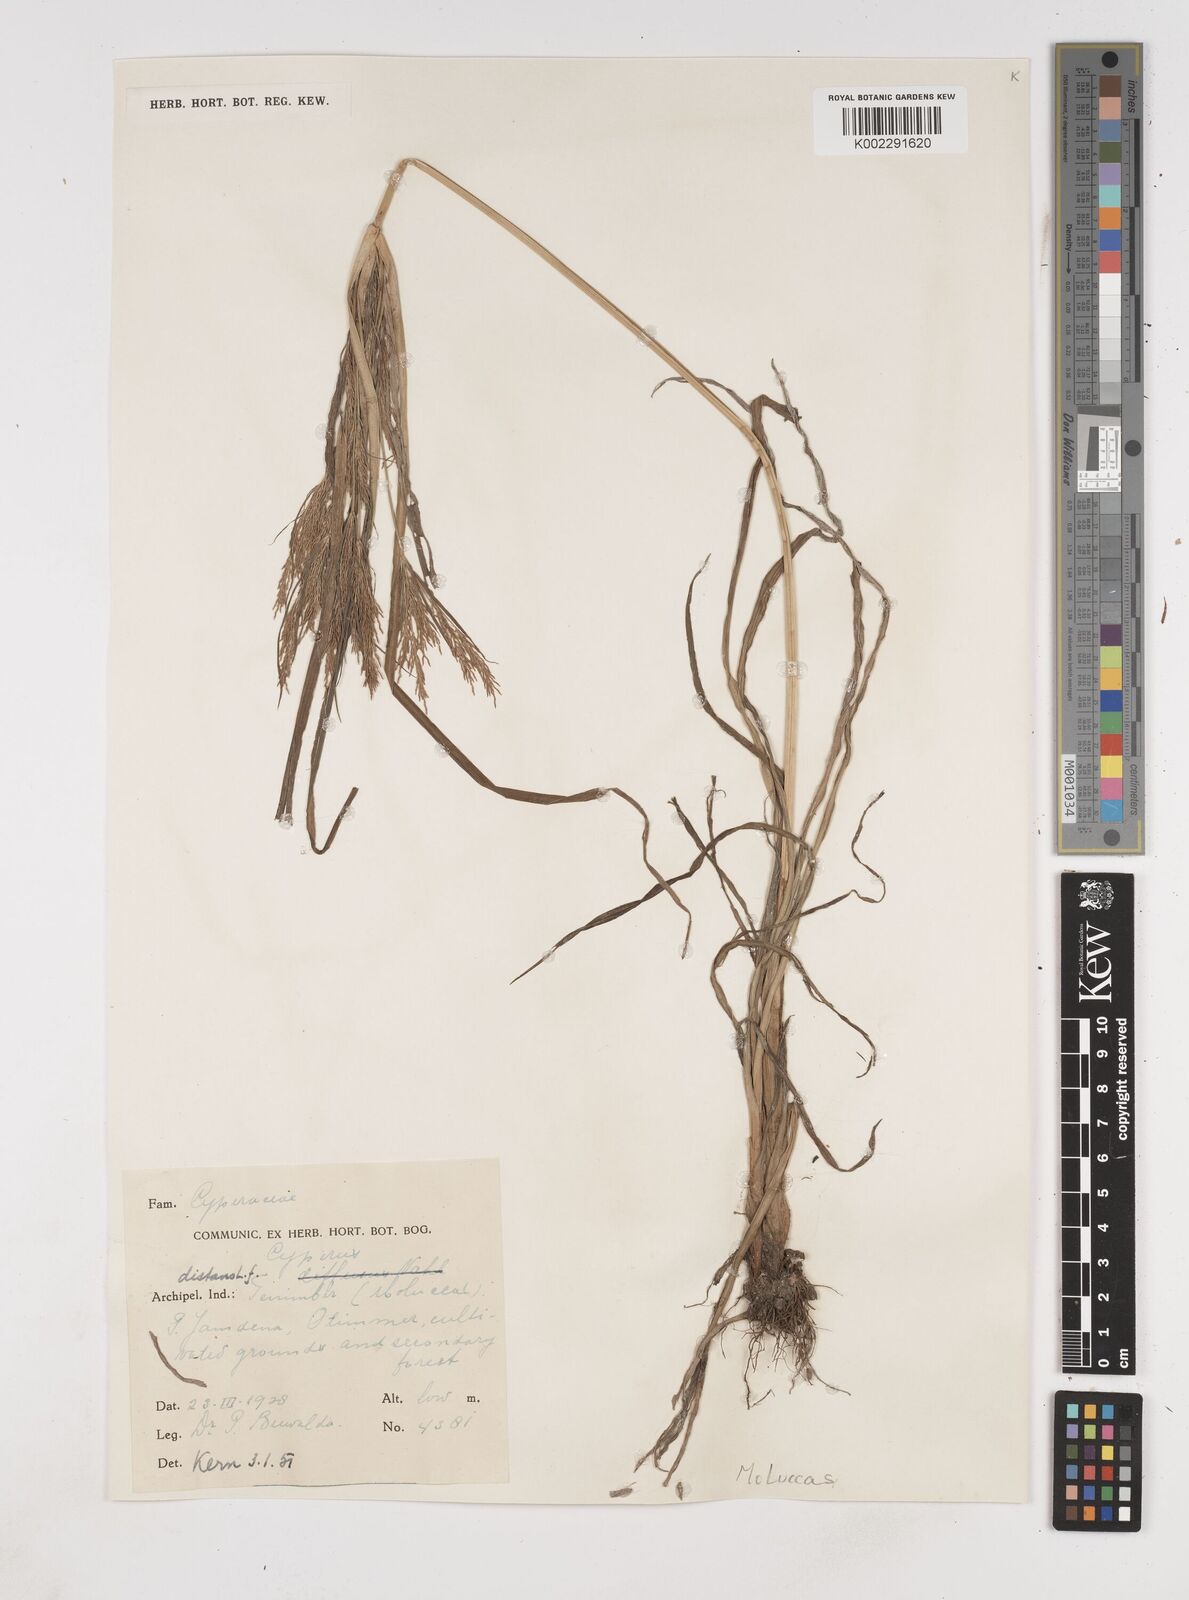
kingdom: Plantae
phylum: Tracheophyta
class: Liliopsida
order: Poales
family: Cyperaceae
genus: Cyperus
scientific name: Cyperus distans
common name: Slender cyperus
